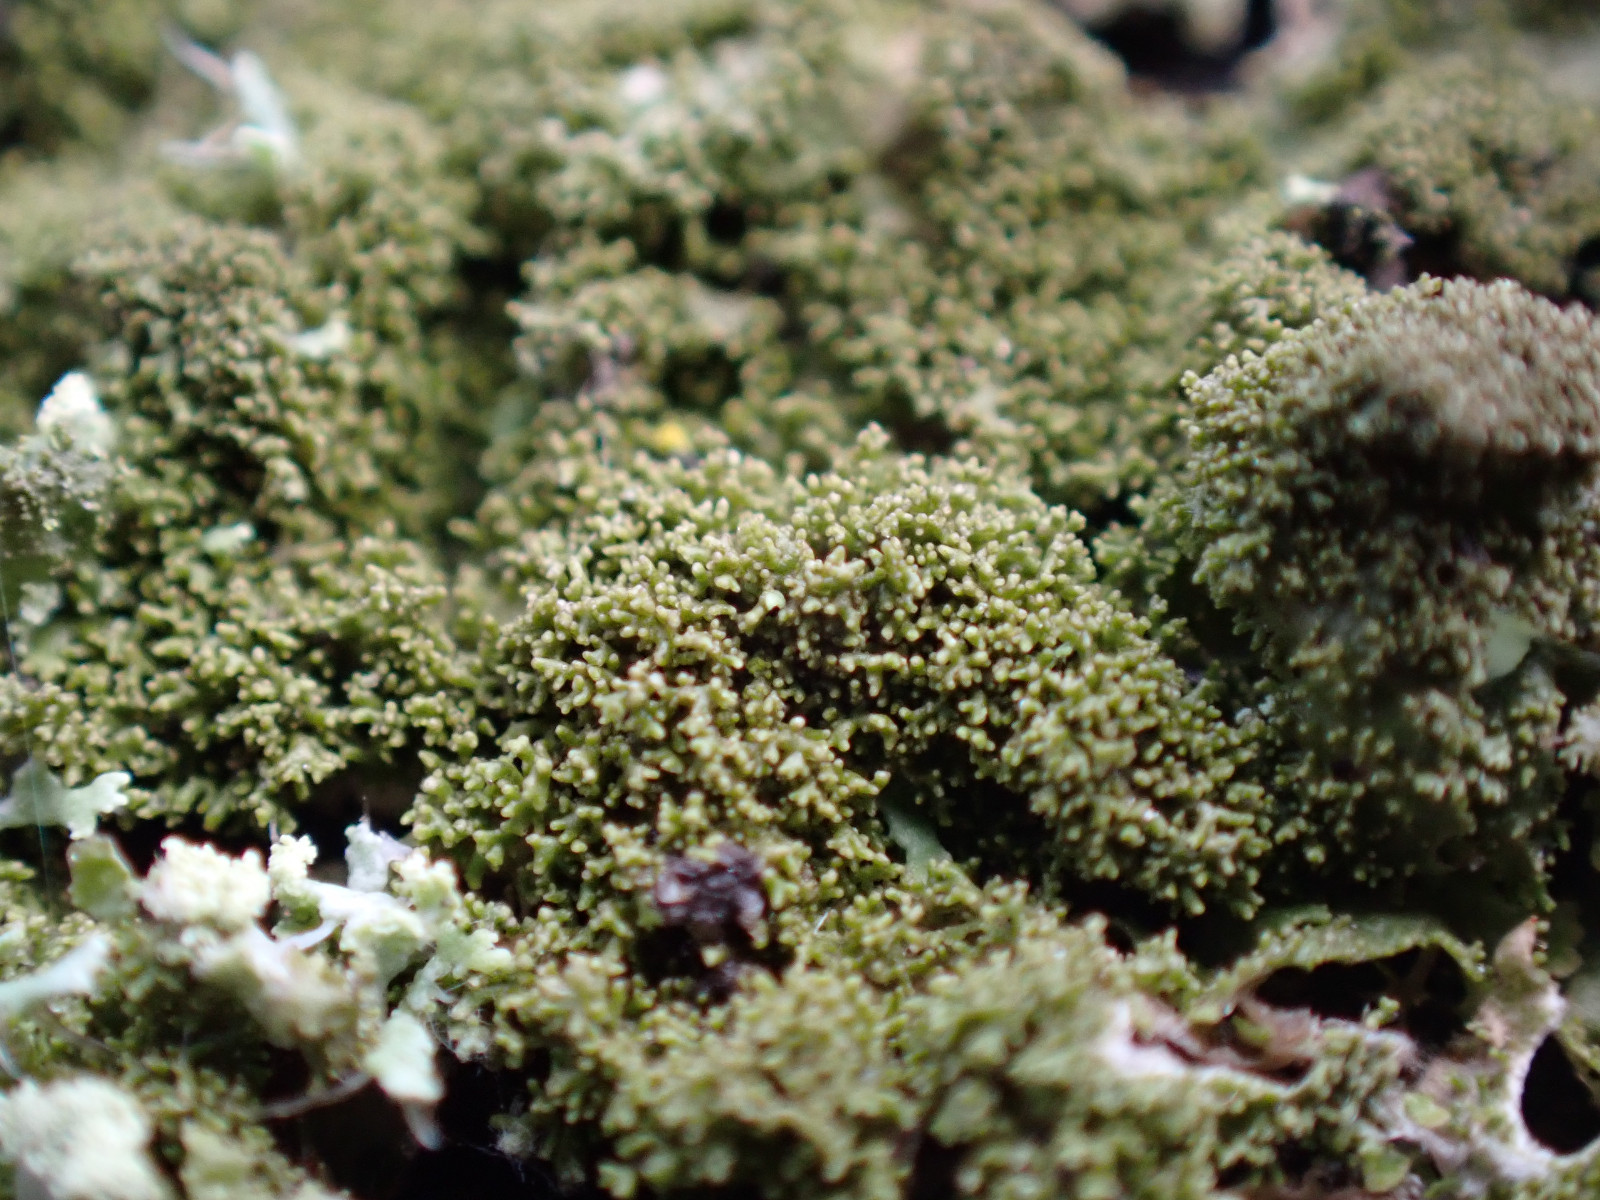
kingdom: Fungi
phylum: Ascomycota
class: Lecanoromycetes
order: Lecanorales
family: Parmeliaceae
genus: Melanohalea
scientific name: Melanohalea elegantula
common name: elegant skållav
